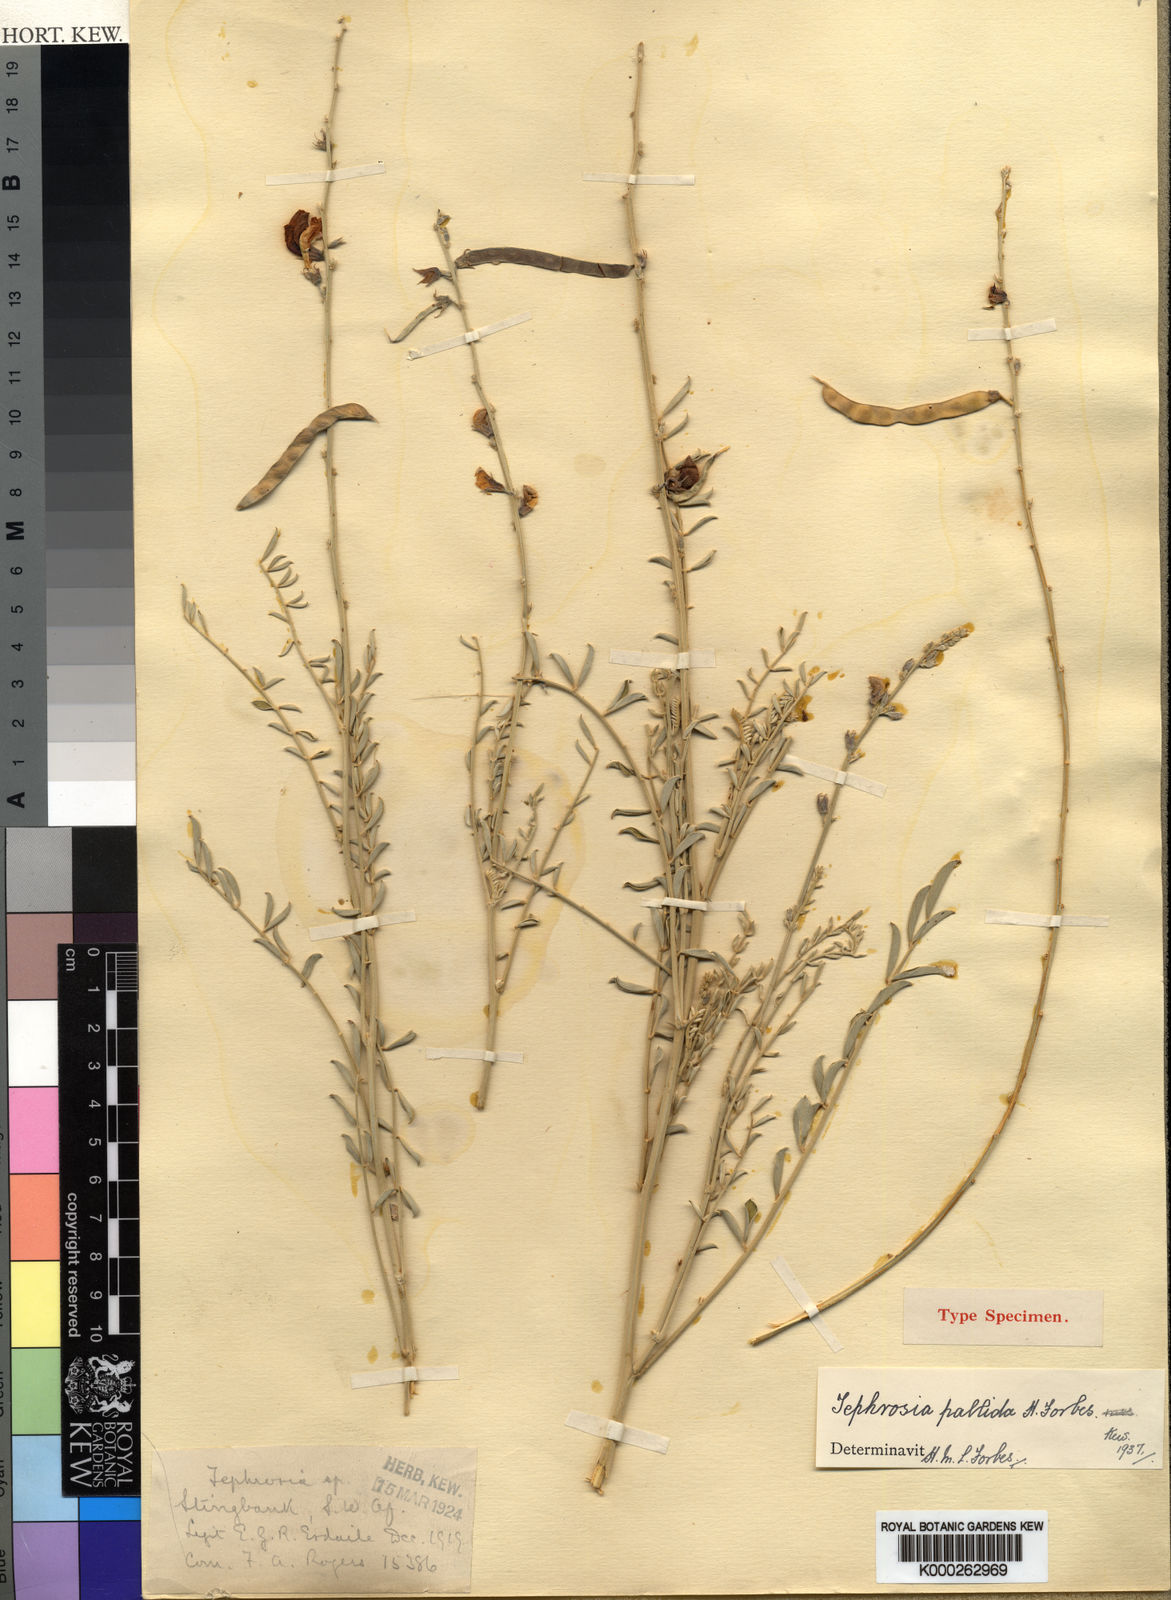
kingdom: Plantae
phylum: Tracheophyta
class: Magnoliopsida
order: Fabales
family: Fabaceae
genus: Tephrosia
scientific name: Tephrosia pallida
